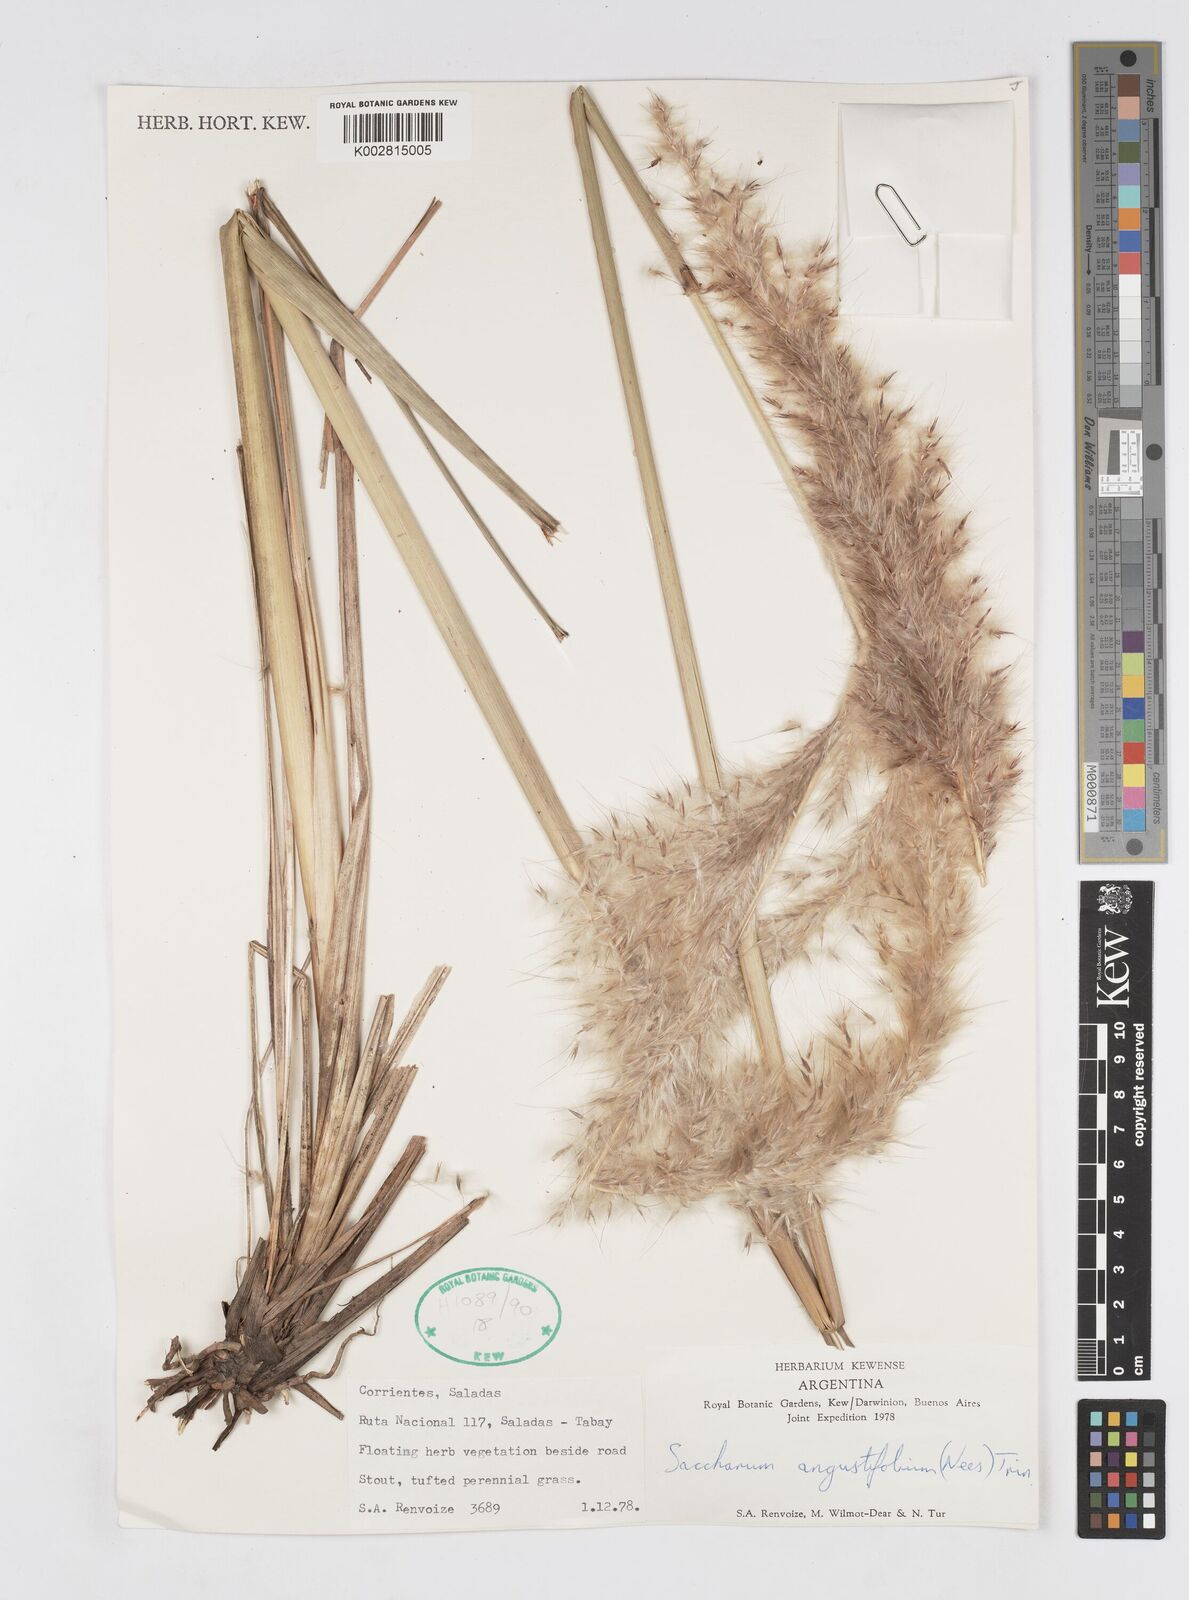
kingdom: Plantae
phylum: Tracheophyta
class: Liliopsida
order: Poales
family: Poaceae
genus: Saccharum
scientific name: Saccharum angustifolium
